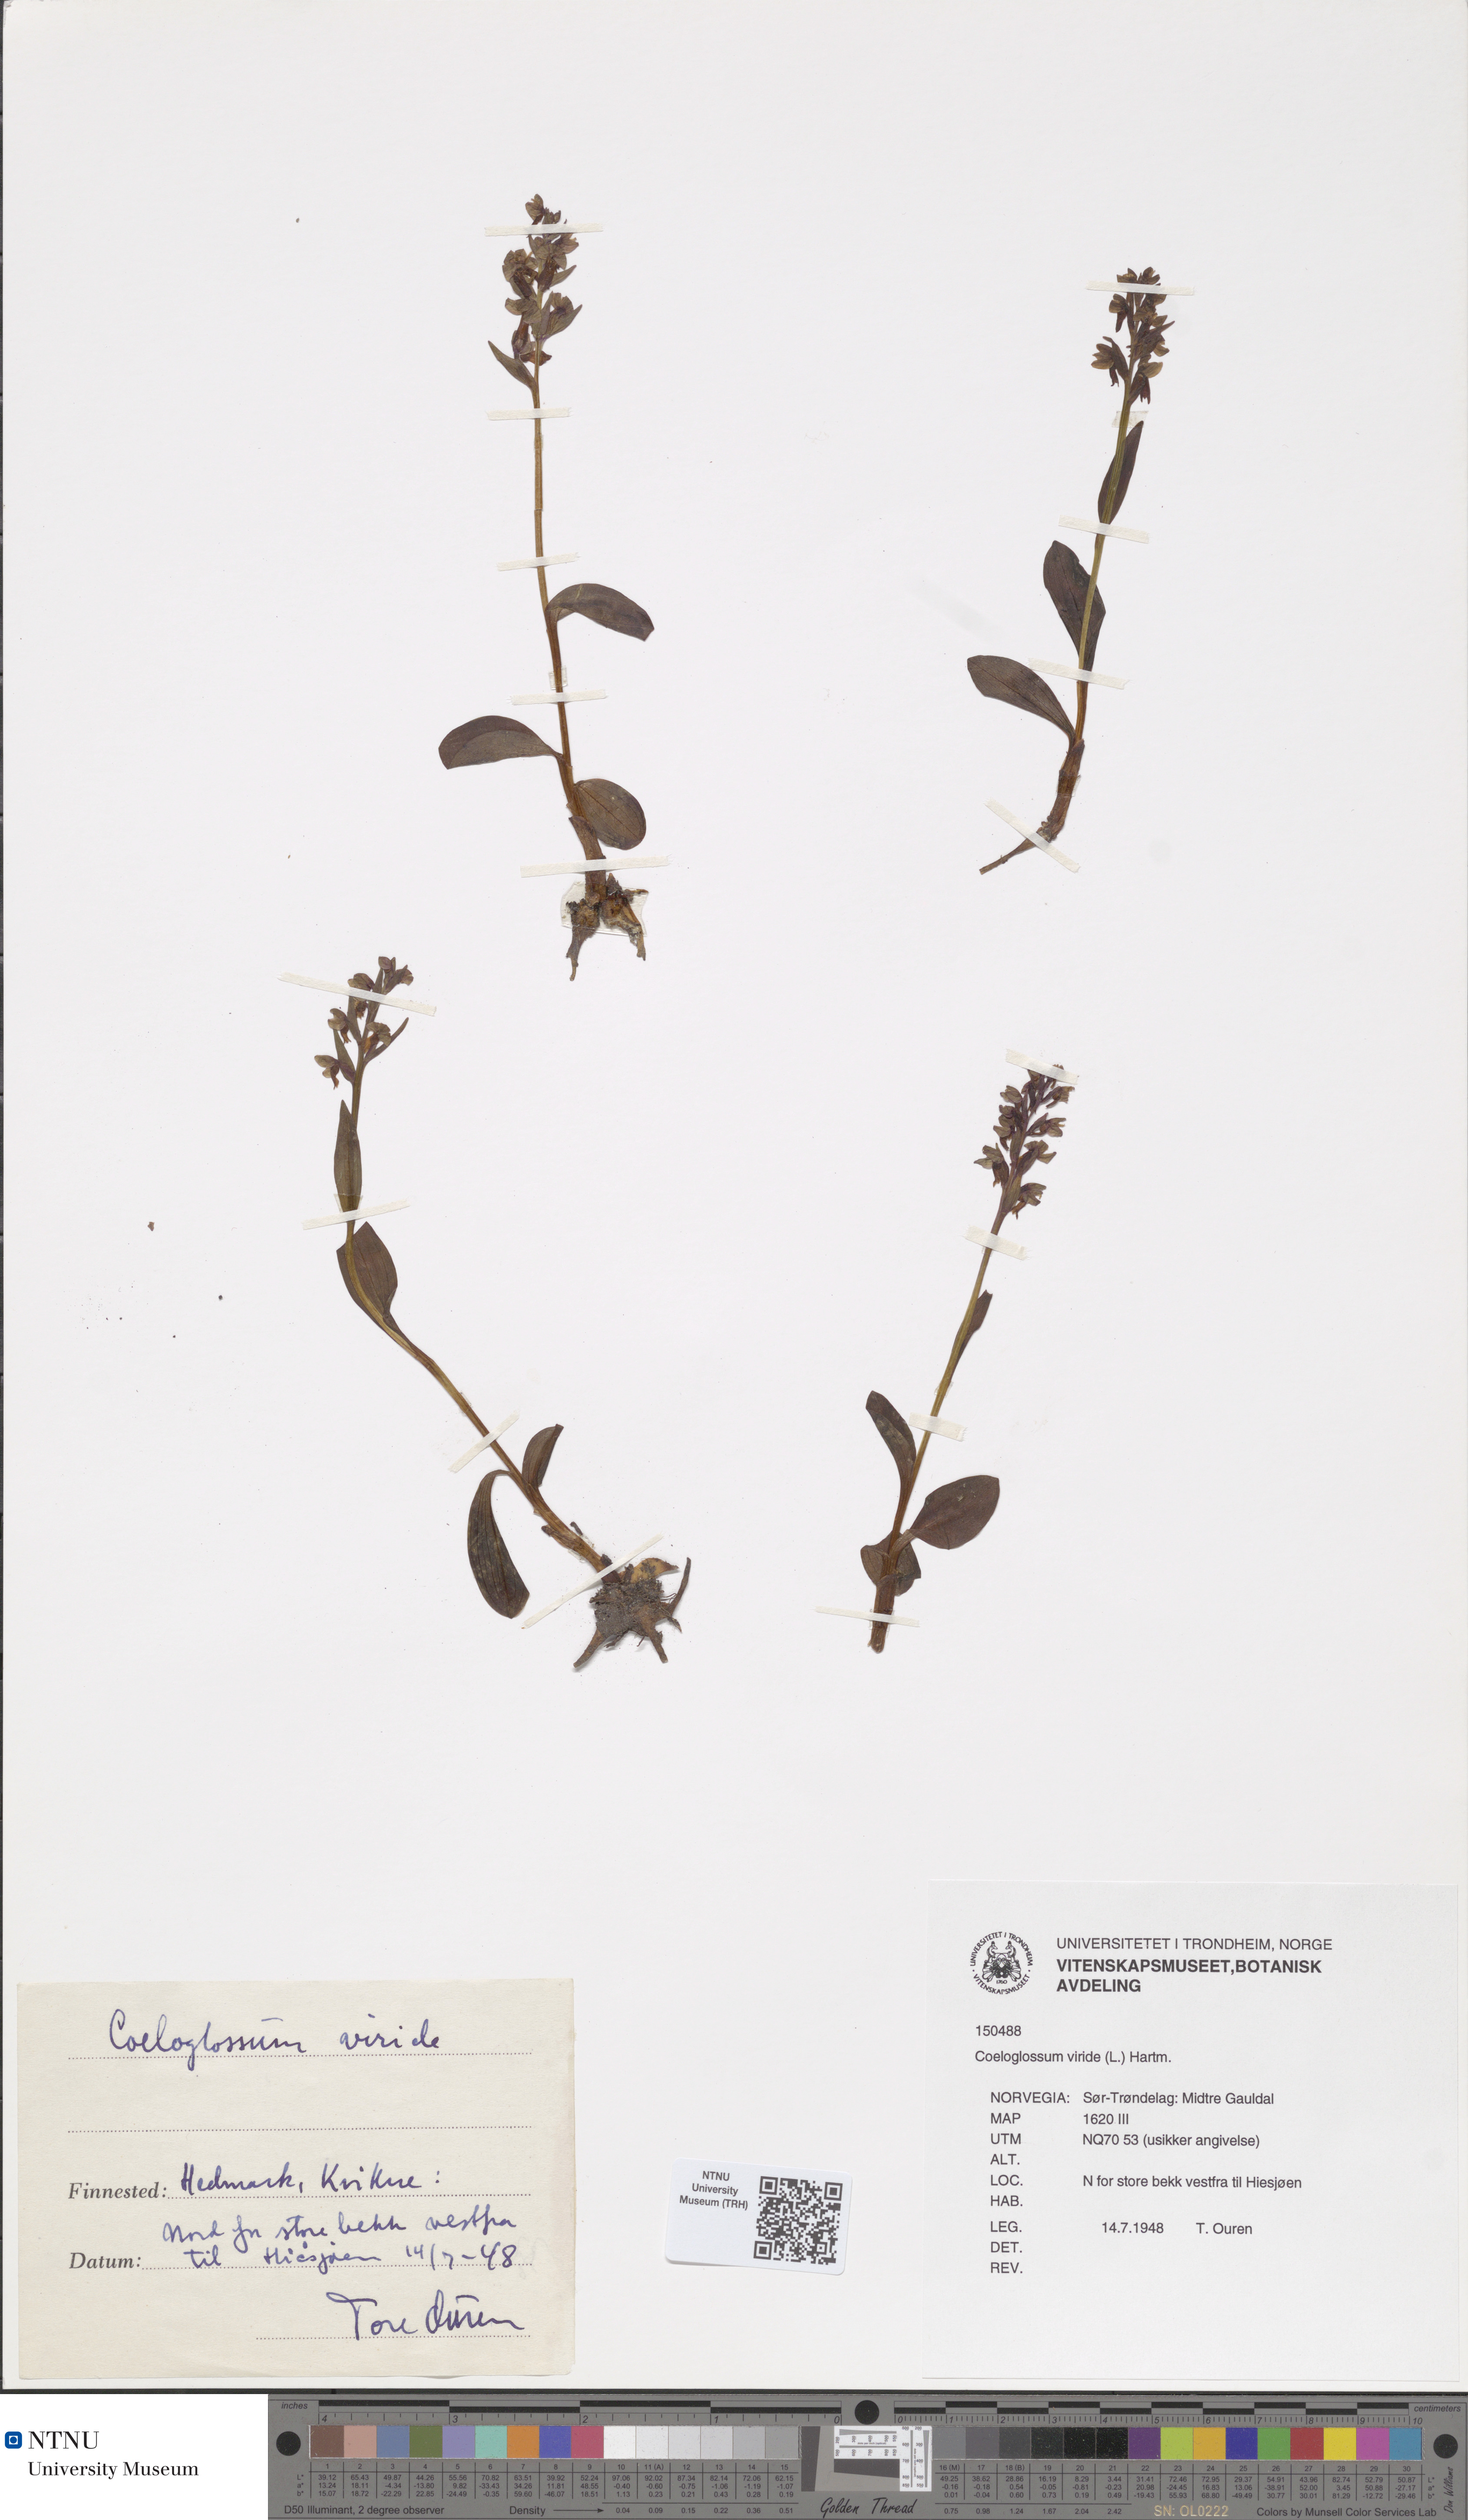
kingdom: Plantae
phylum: Tracheophyta
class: Liliopsida
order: Asparagales
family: Orchidaceae
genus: Dactylorhiza
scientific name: Dactylorhiza viridis
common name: Longbract frog orchid
